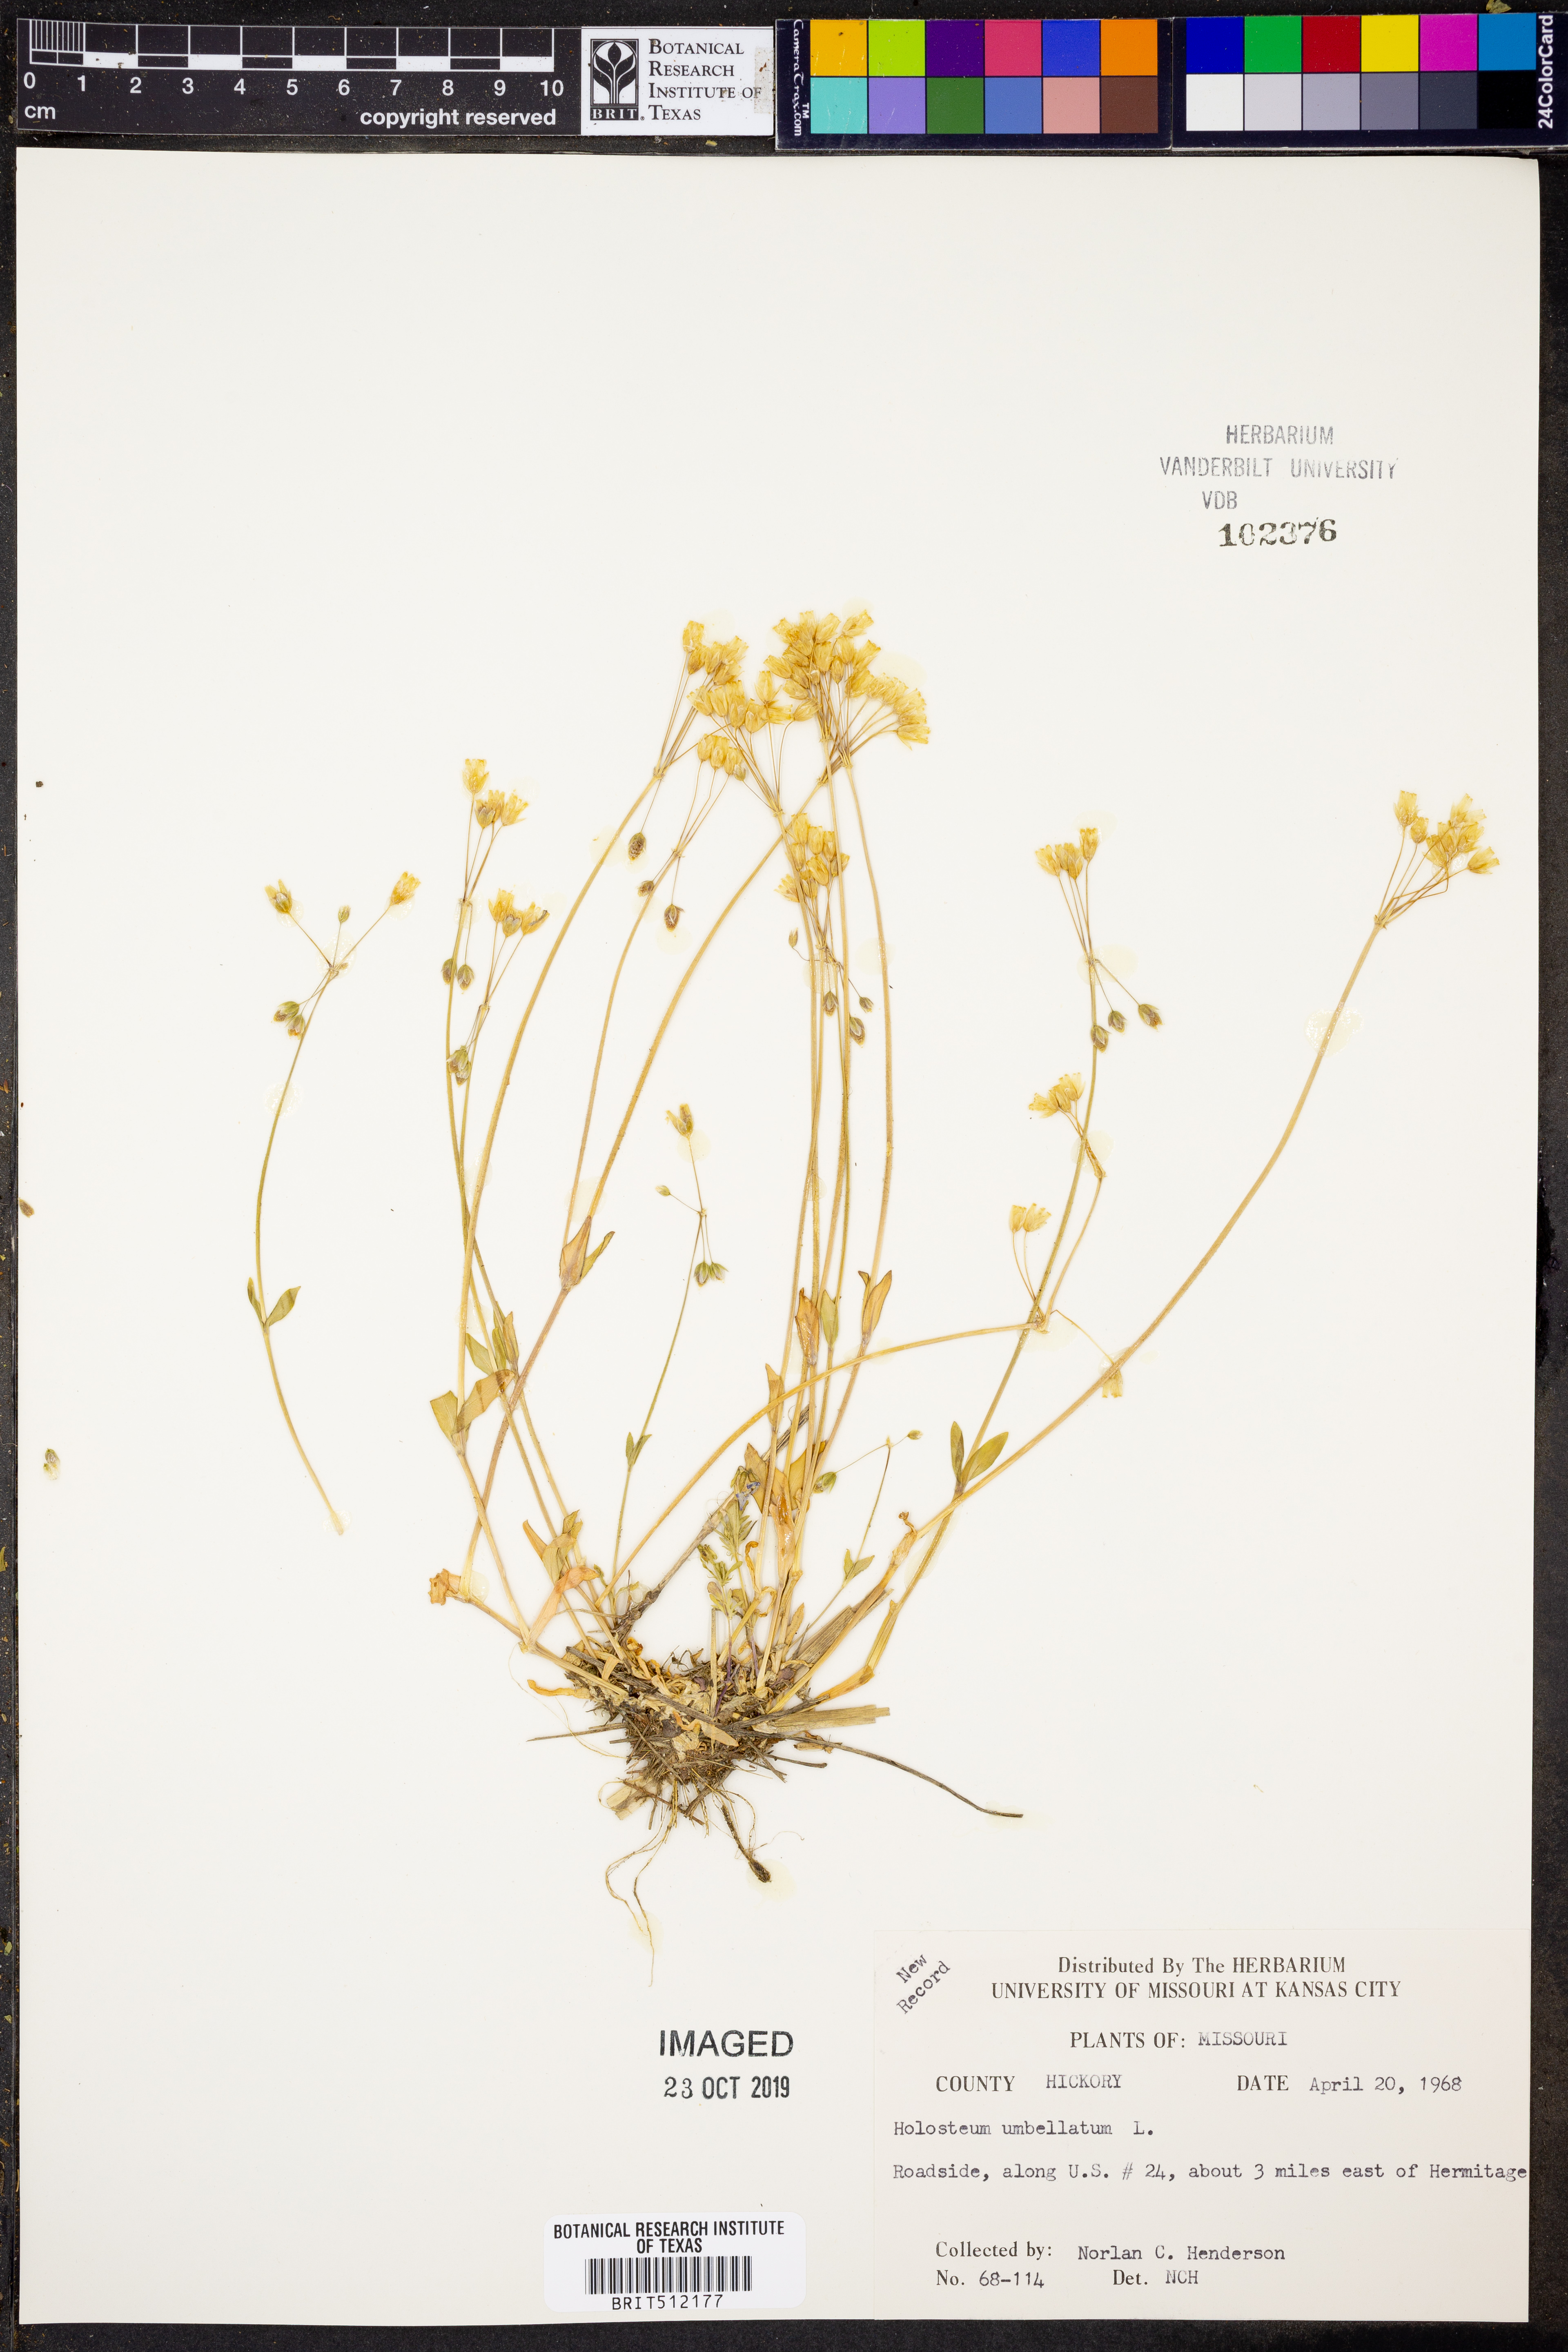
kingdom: Plantae
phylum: Tracheophyta
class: Magnoliopsida
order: Caryophyllales
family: Caryophyllaceae
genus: Holosteum
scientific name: Holosteum umbellatum
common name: Jagged chickweed
